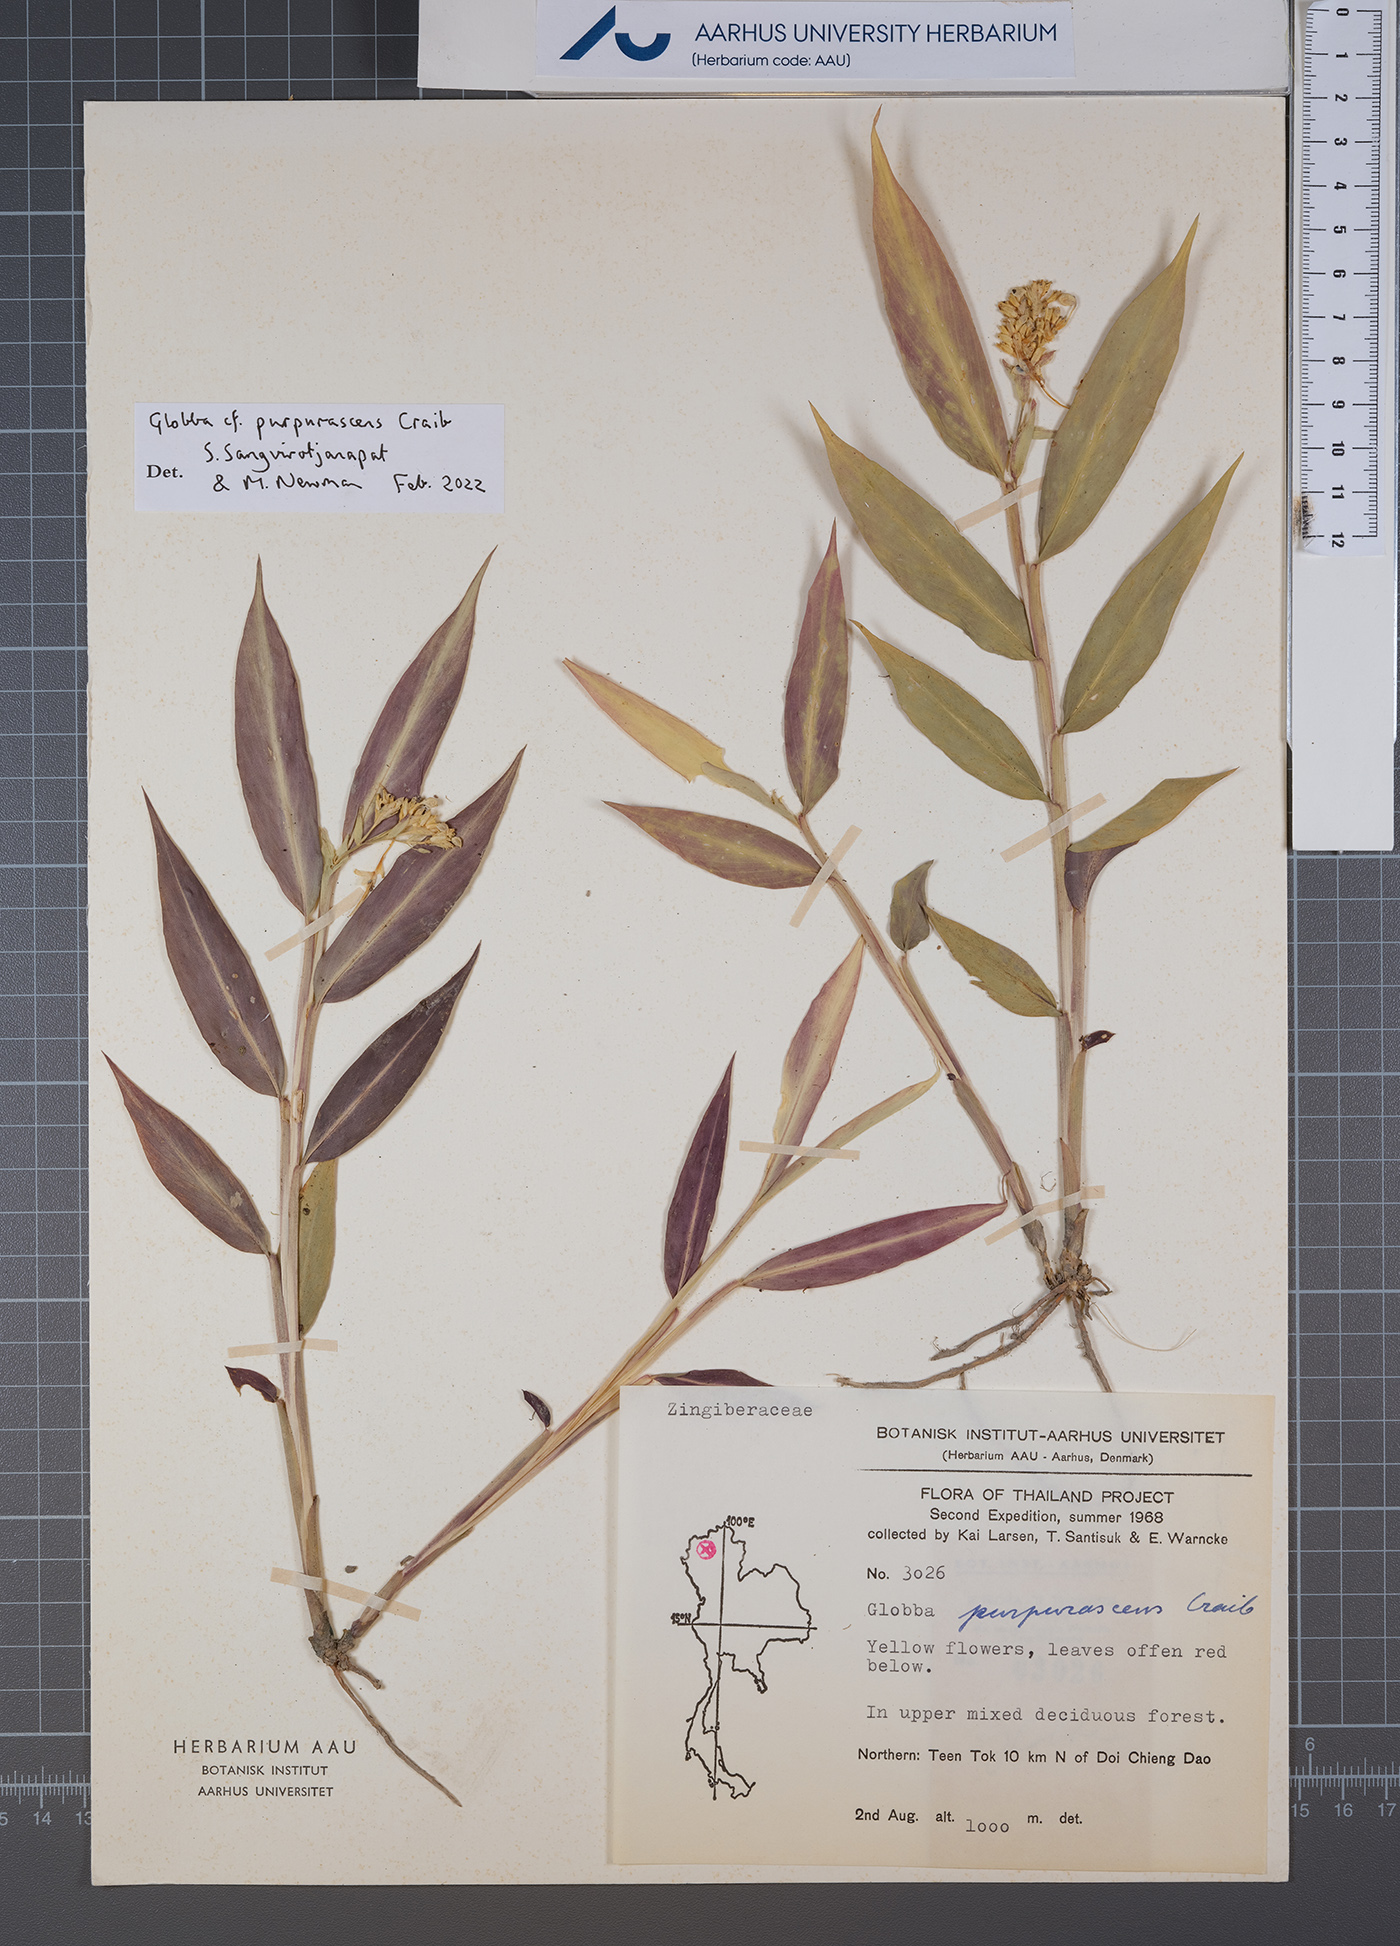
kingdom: Plantae
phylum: Tracheophyta
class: Liliopsida
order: Zingiberales
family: Zingiberaceae
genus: Globba
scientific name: Globba purpurascens
